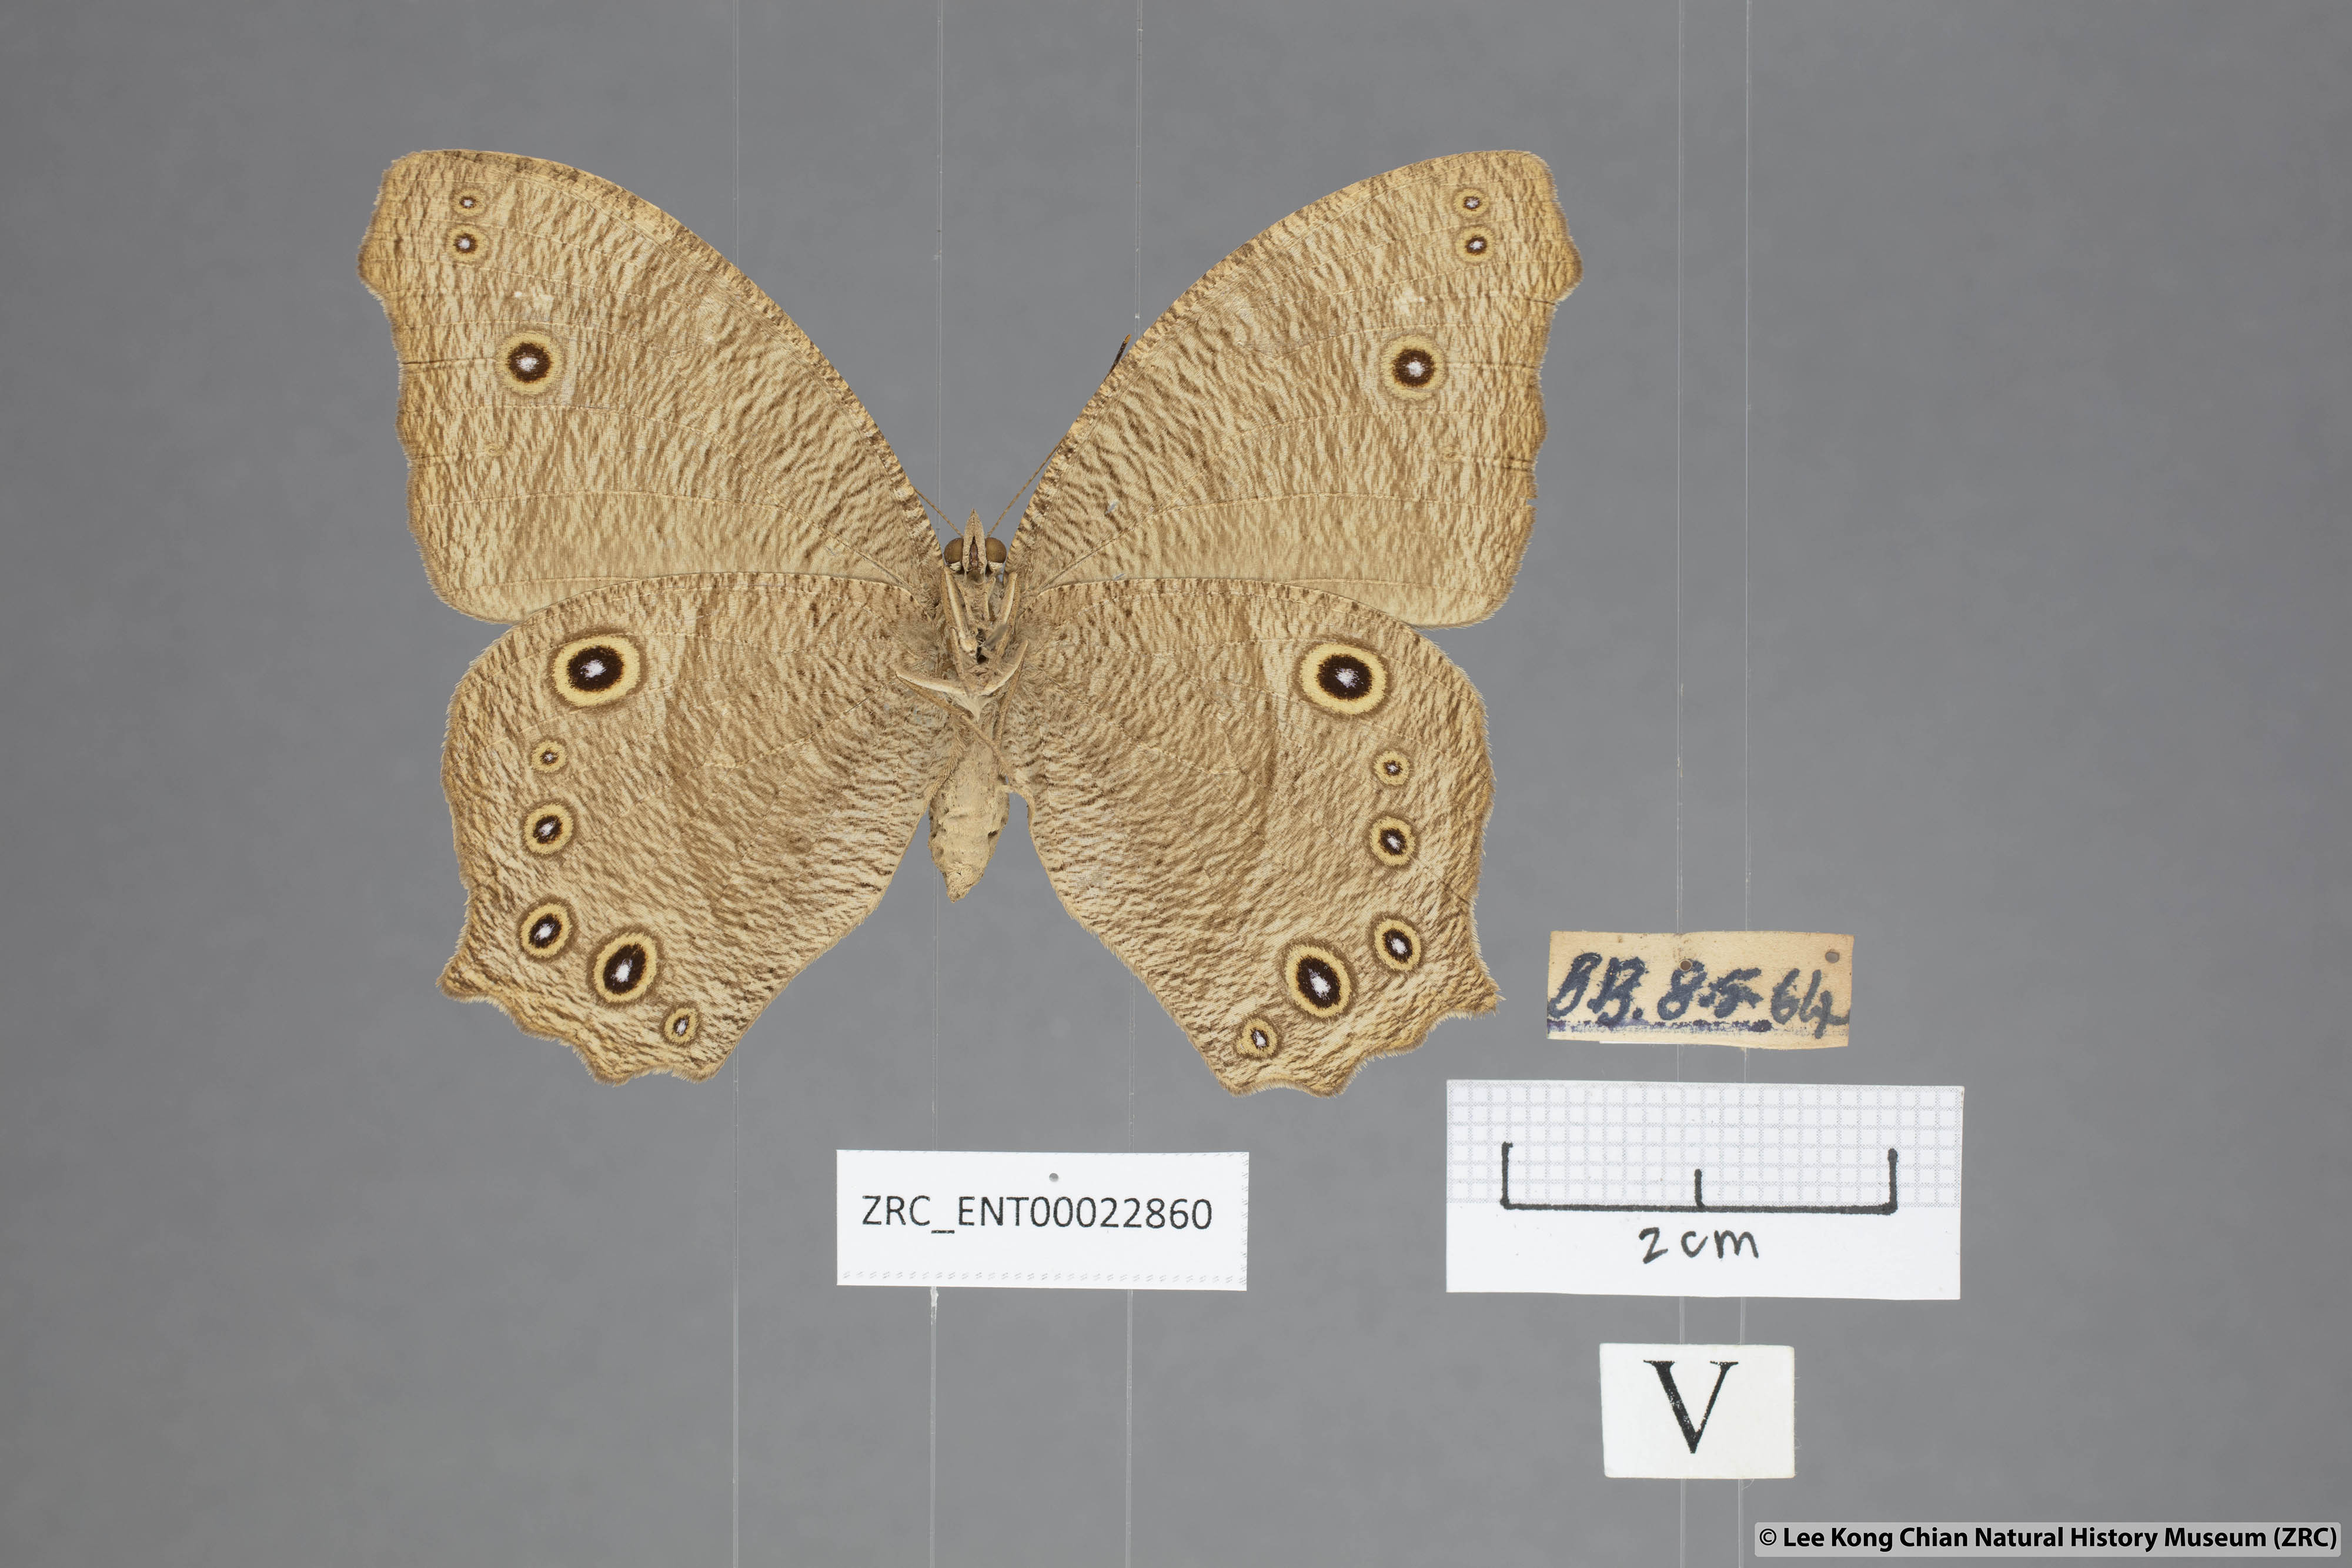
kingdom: Animalia
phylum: Arthropoda
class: Insecta
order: Lepidoptera
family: Nymphalidae
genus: Melanitis
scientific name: Melanitis leda
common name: Twilight brown
